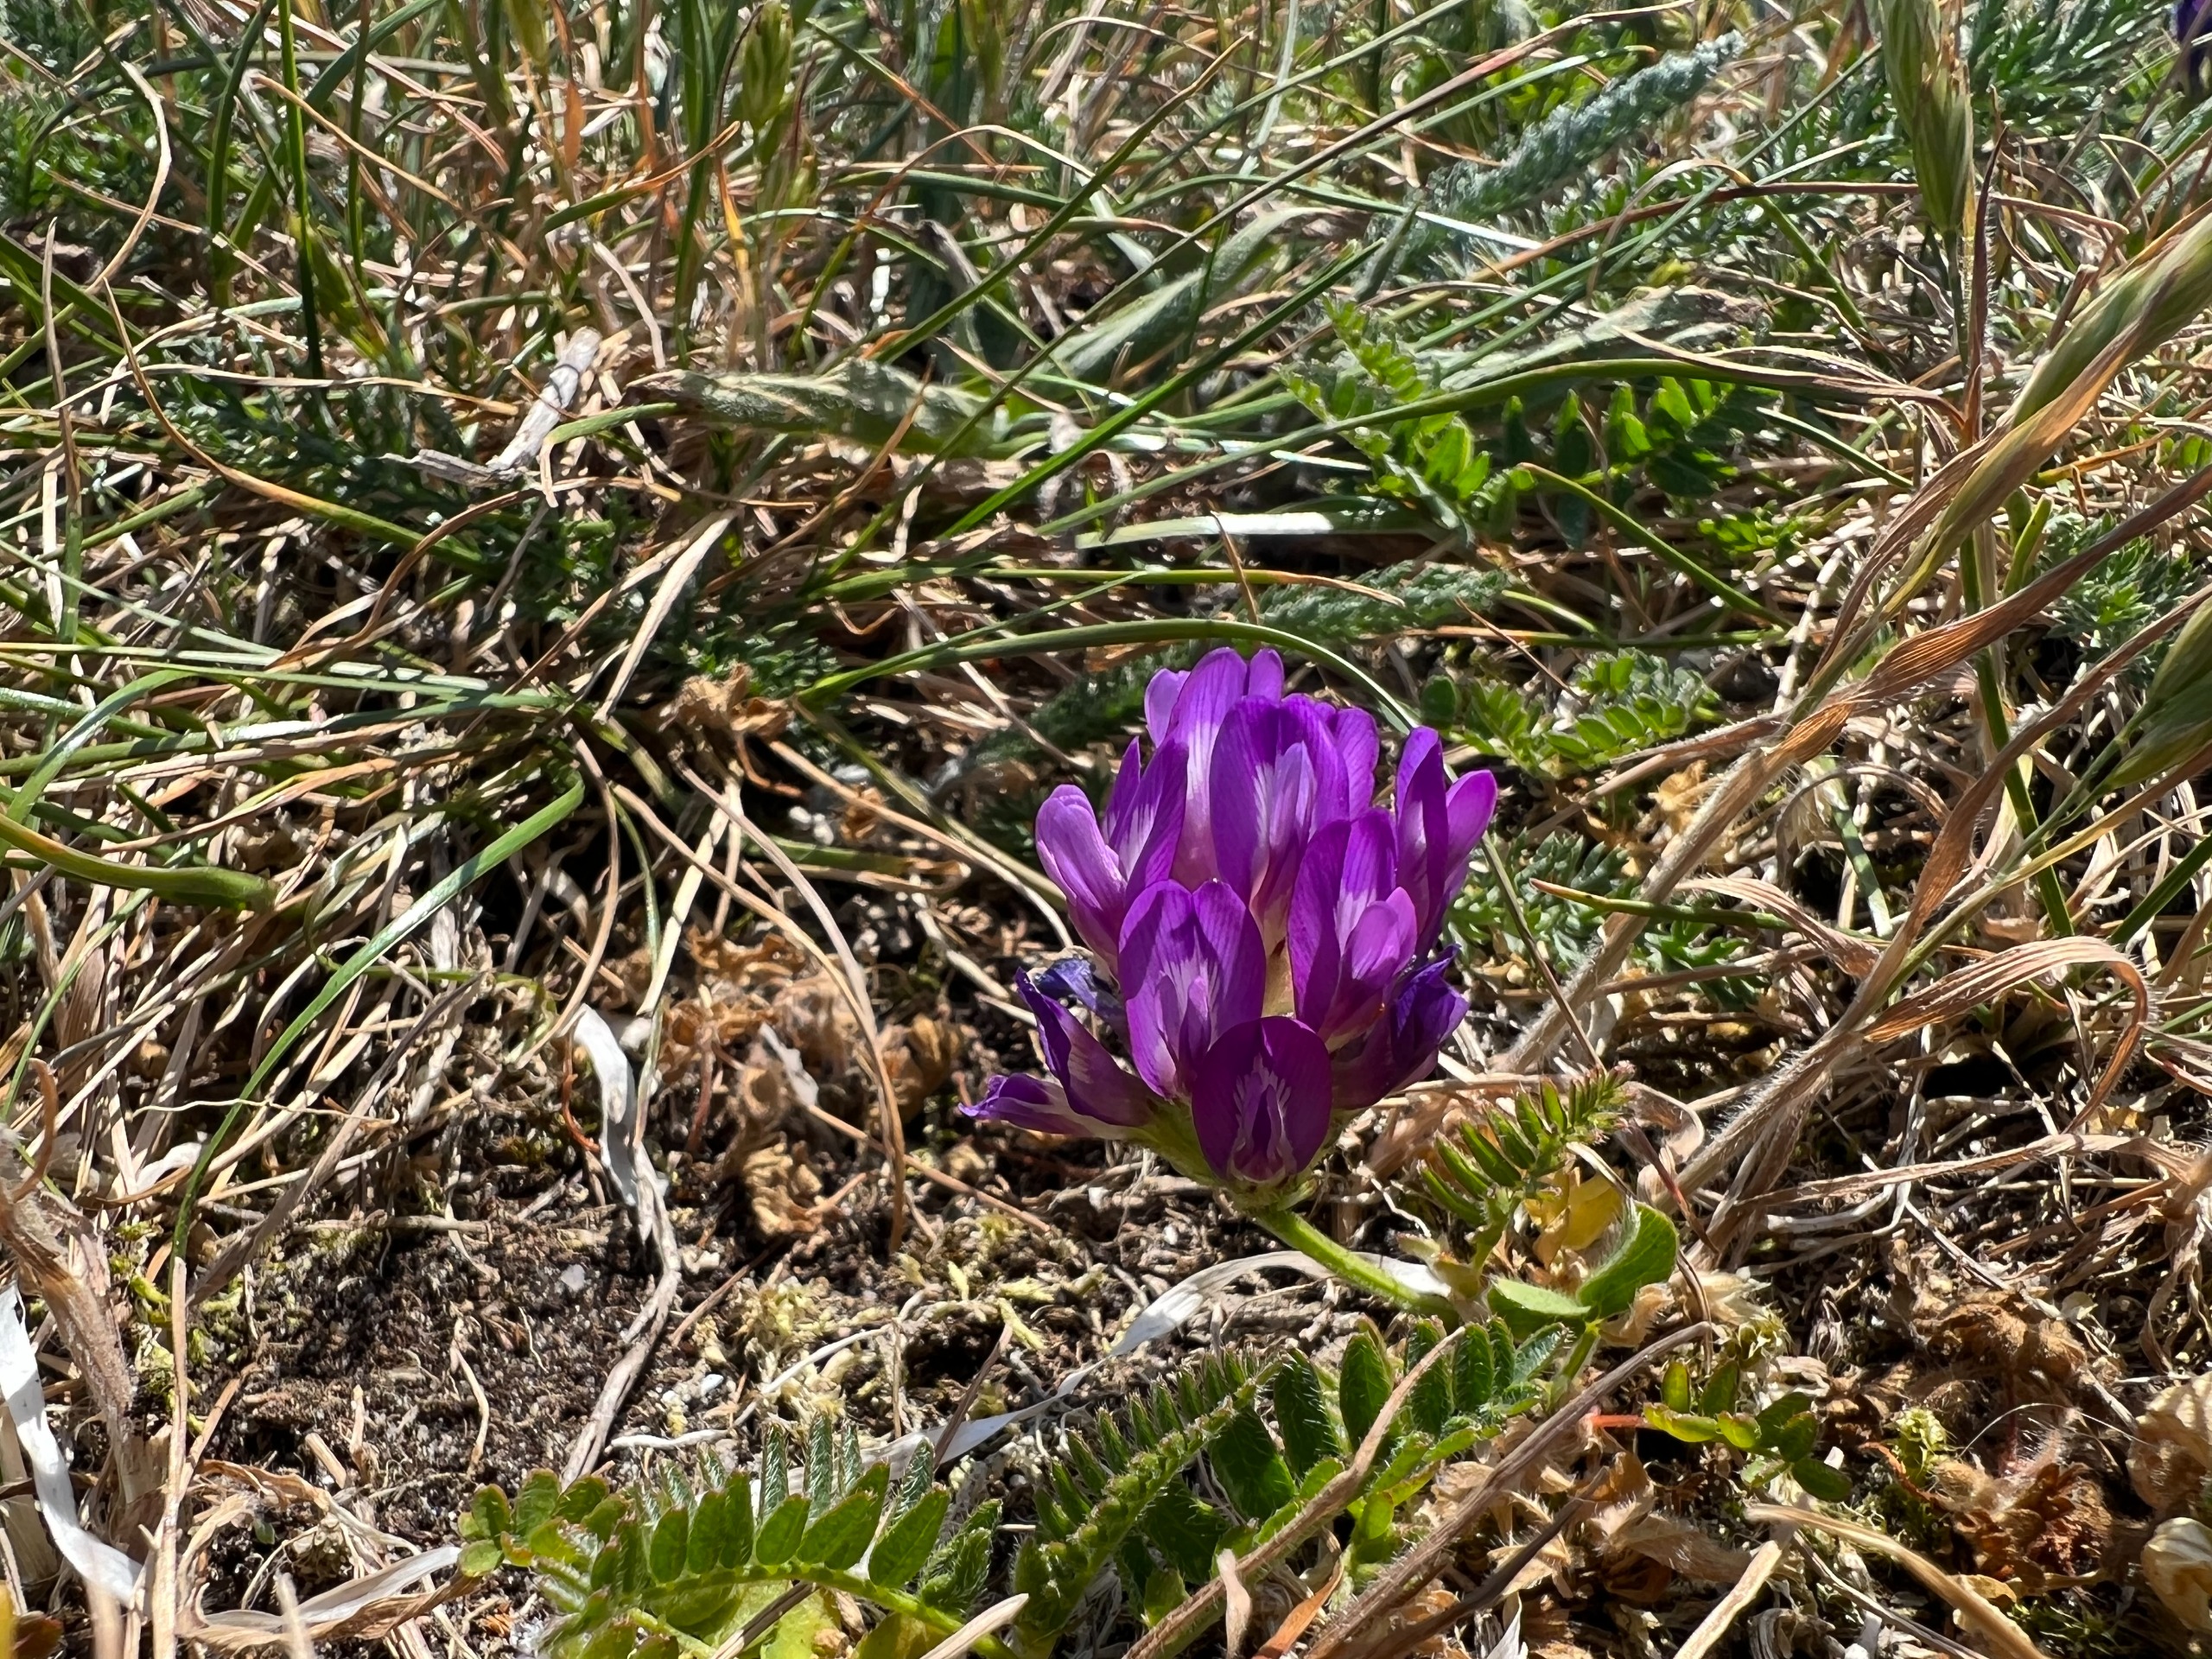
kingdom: Plantae
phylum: Tracheophyta
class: Magnoliopsida
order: Fabales
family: Fabaceae
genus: Astragalus
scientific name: Astragalus danicus
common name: Dansk astragel
